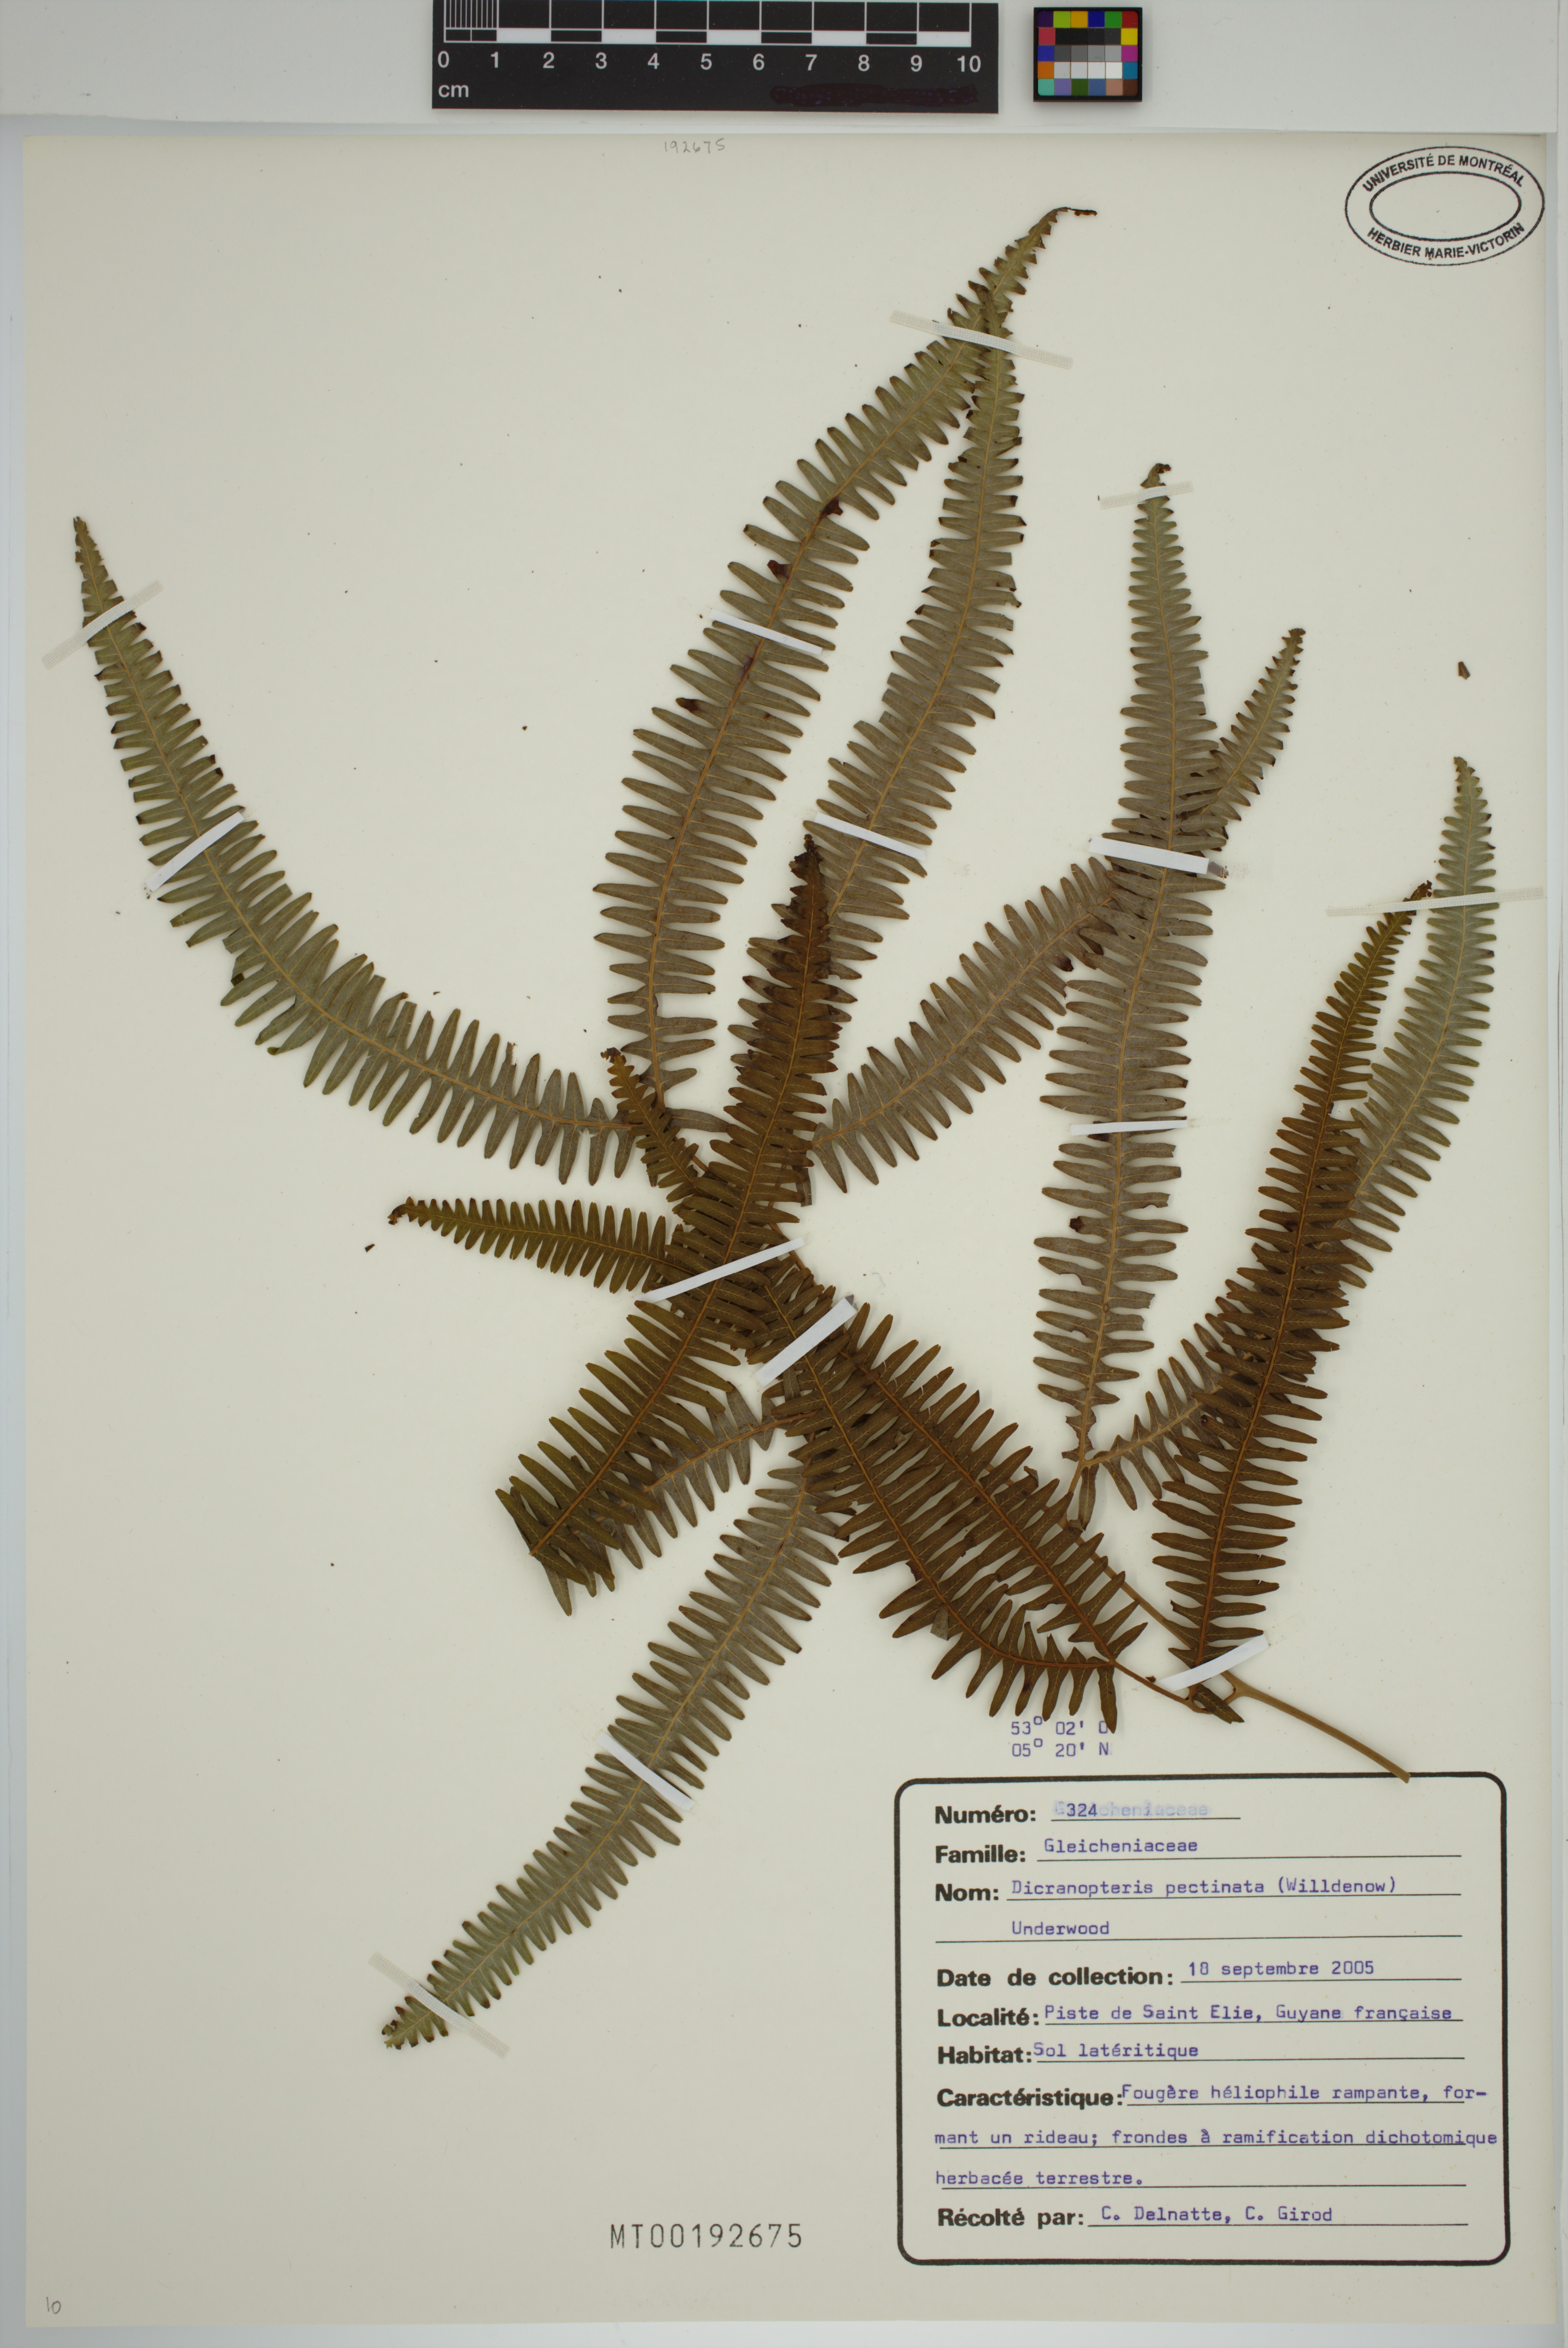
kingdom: Plantae
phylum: Tracheophyta
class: Polypodiopsida
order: Gleicheniales
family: Gleicheniaceae
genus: Gleichenella
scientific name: Gleichenella pectinata
